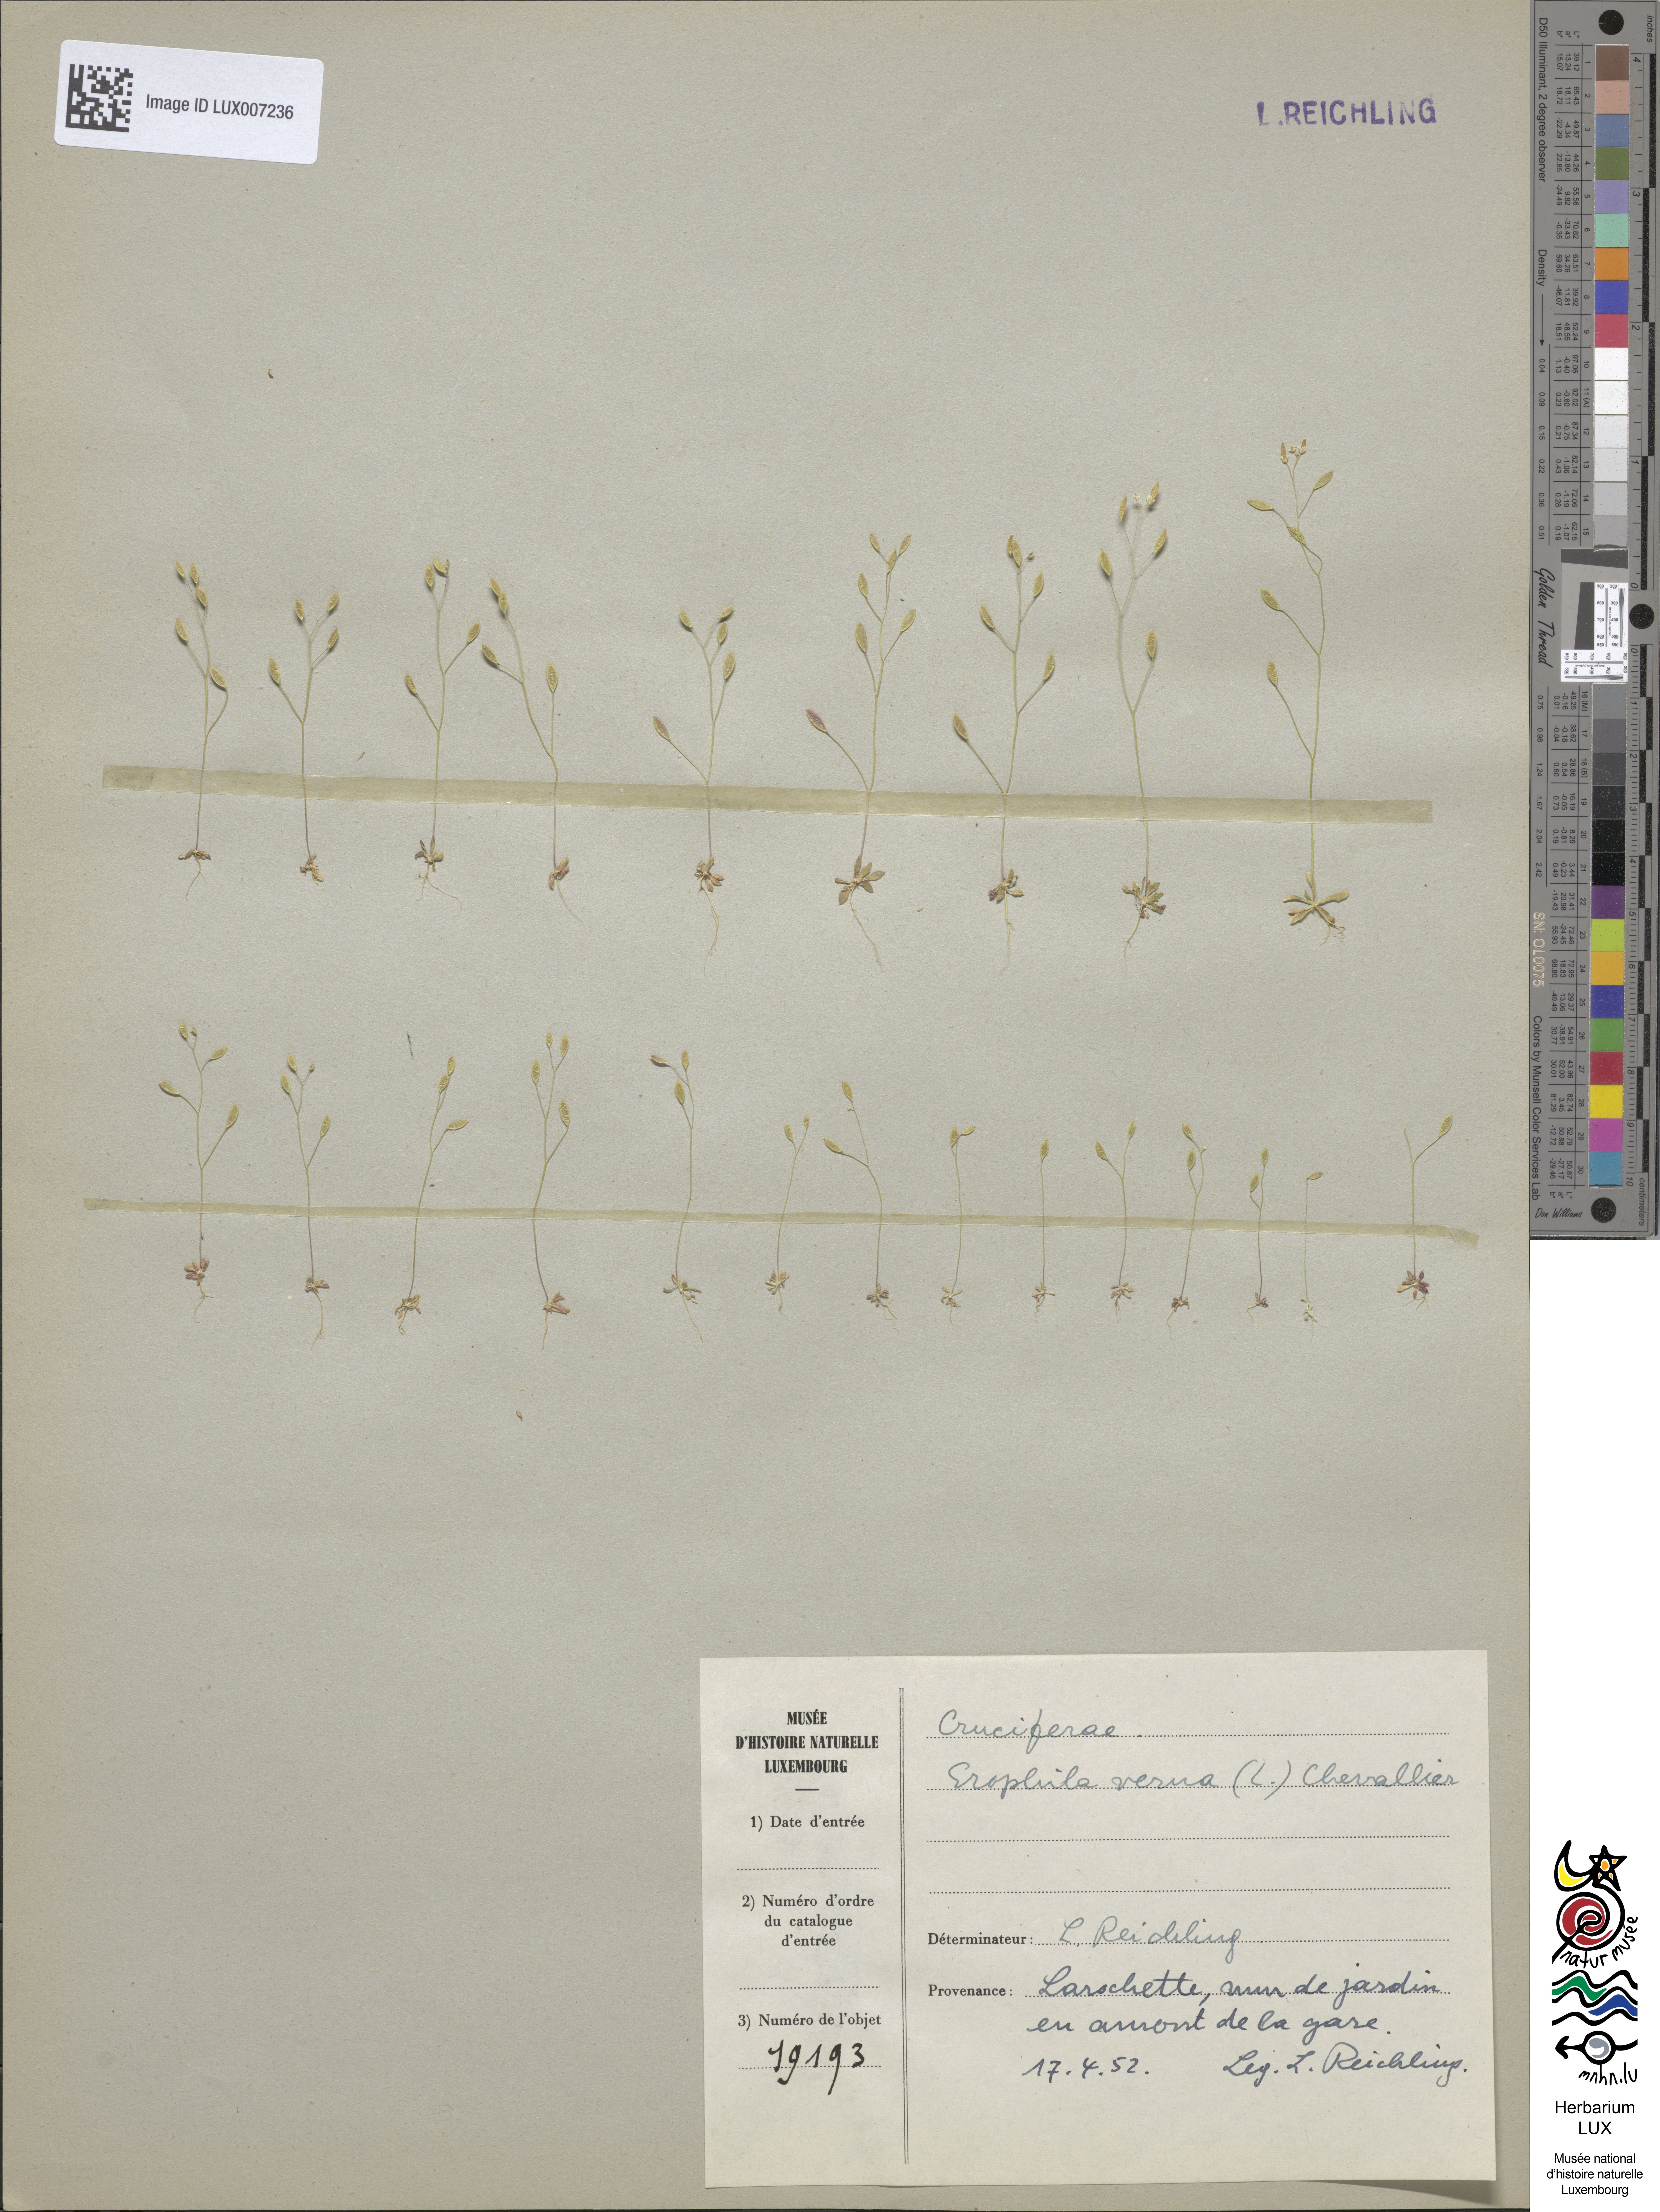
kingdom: Plantae
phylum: Tracheophyta
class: Magnoliopsida
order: Brassicales
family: Brassicaceae
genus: Draba
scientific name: Draba verna
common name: Spring draba
